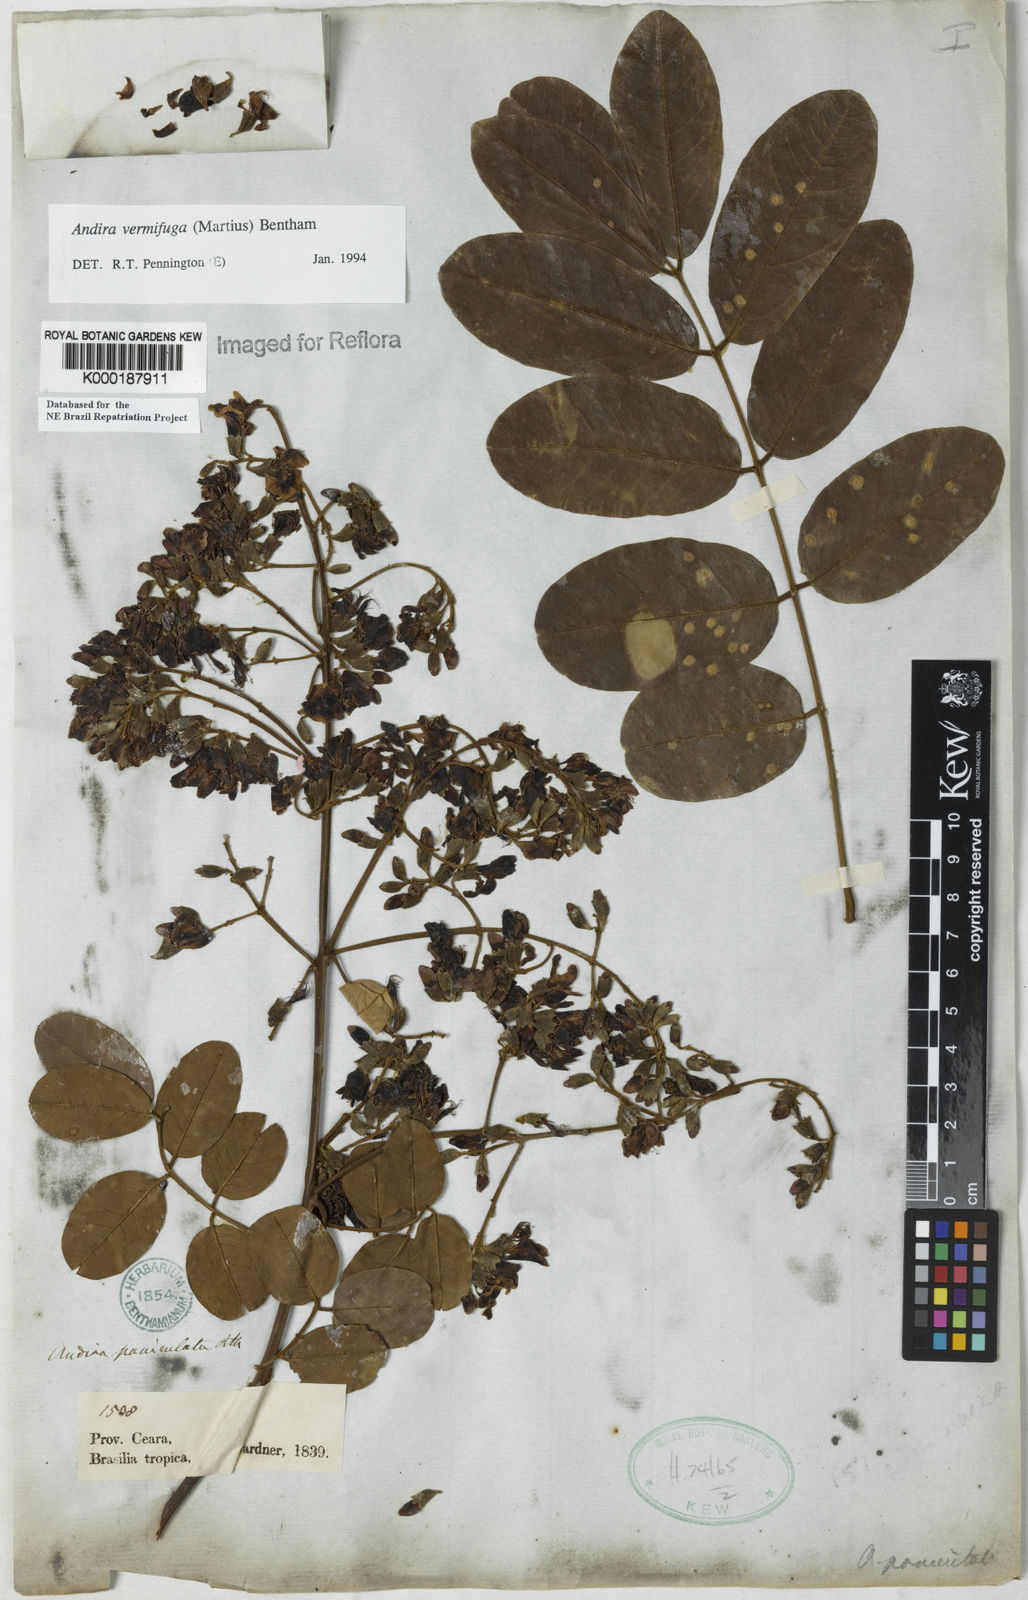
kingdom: Plantae
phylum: Tracheophyta
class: Magnoliopsida
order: Fabales
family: Fabaceae
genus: Andira
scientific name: Andira vermifuga
